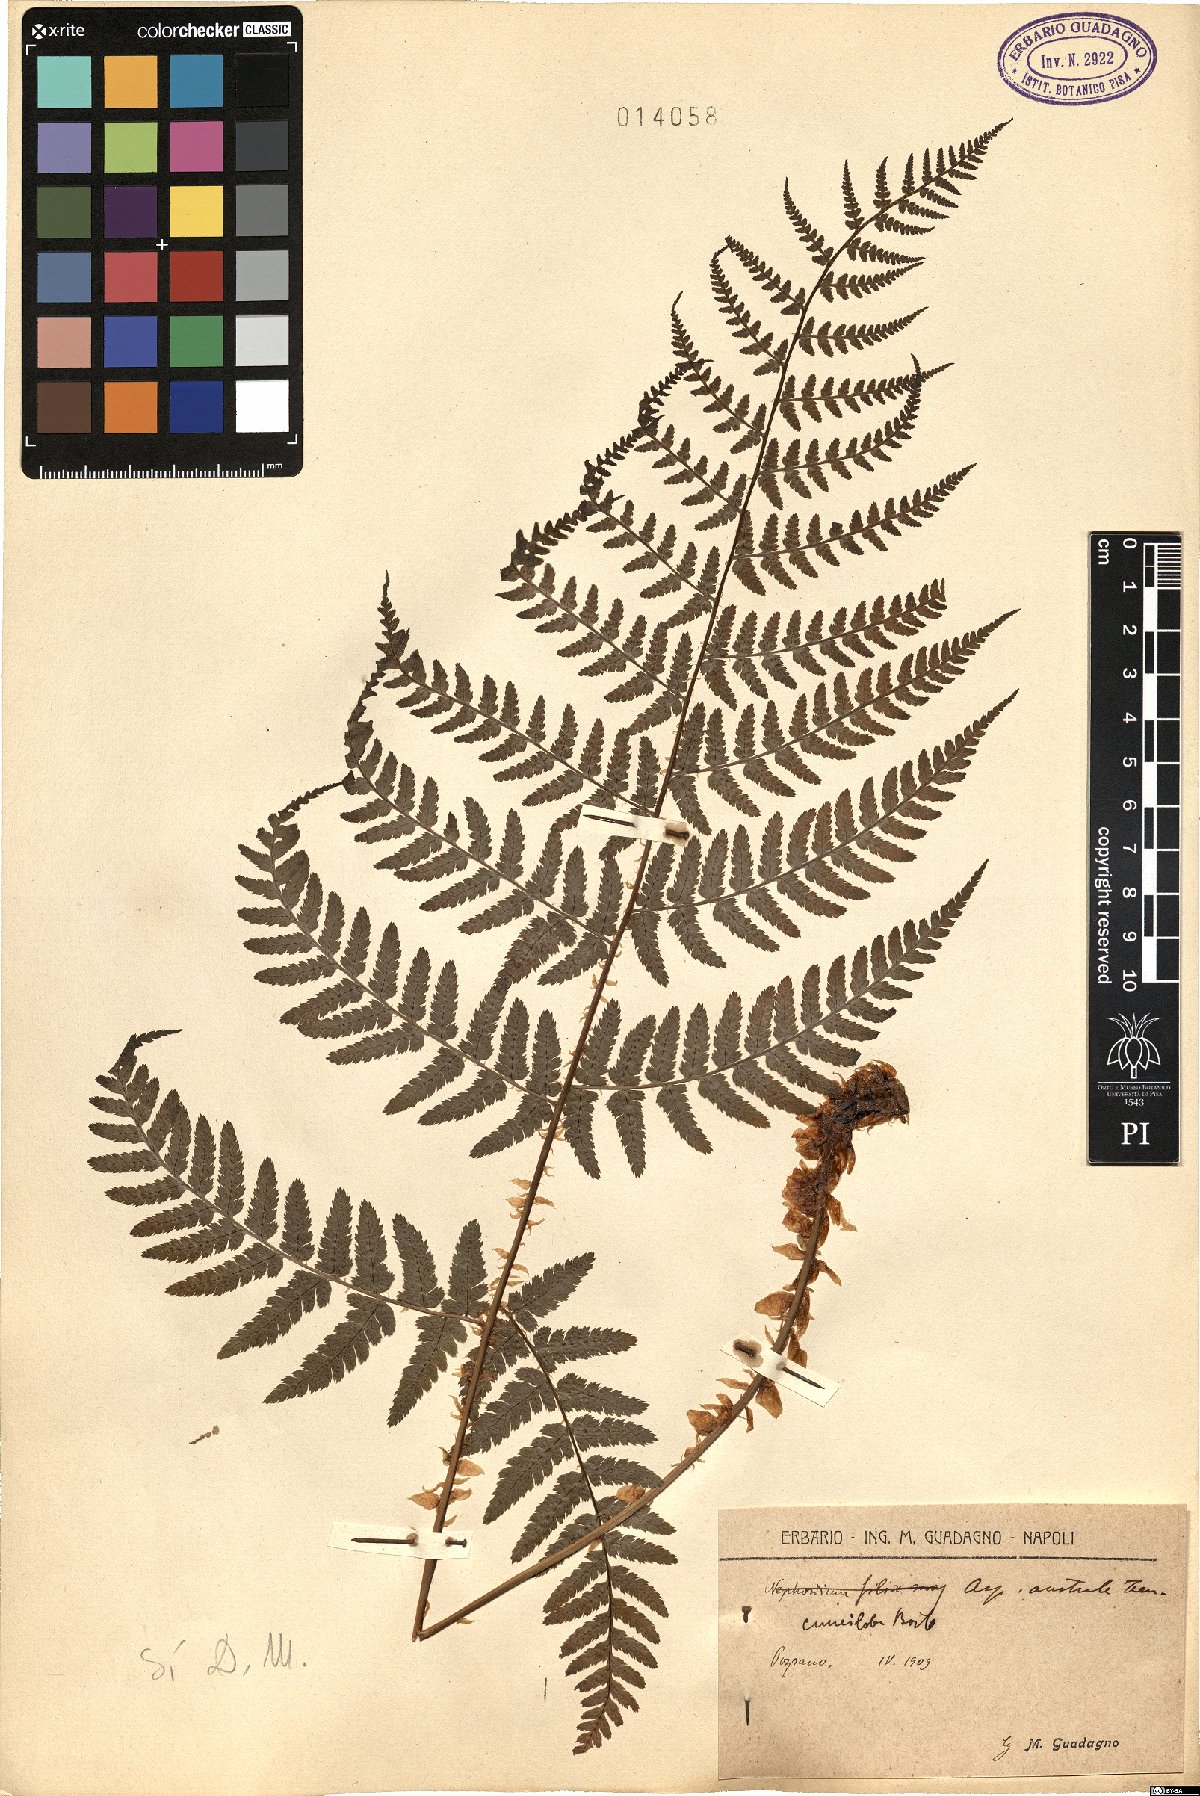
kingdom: Plantae
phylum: Tracheophyta
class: Polypodiopsida
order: Polypodiales
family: Dryopteridaceae
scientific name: Dryopteridaceae
